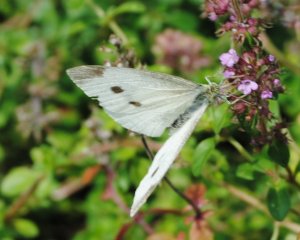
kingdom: Animalia
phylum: Arthropoda
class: Insecta
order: Lepidoptera
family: Pieridae
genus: Pieris
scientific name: Pieris rapae
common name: Cabbage White
